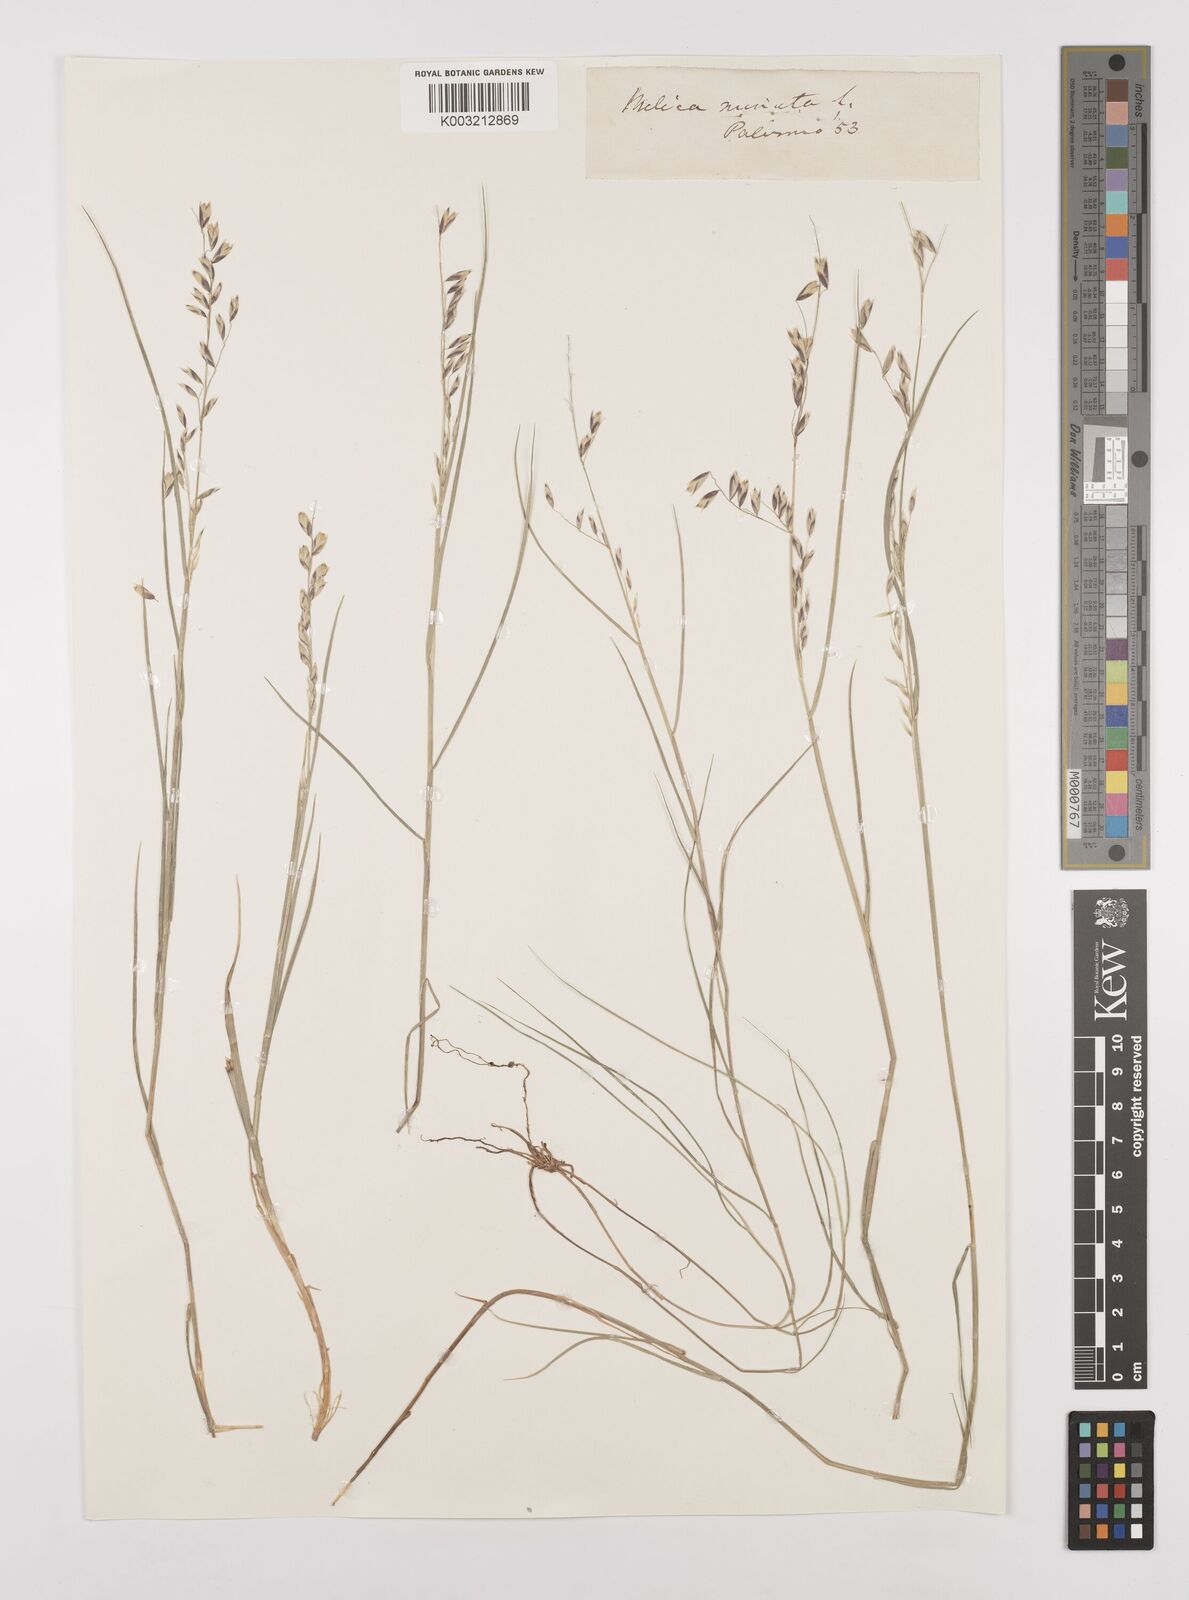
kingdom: Plantae
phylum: Tracheophyta
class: Liliopsida
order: Poales
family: Poaceae
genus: Melica
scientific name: Melica minuta
